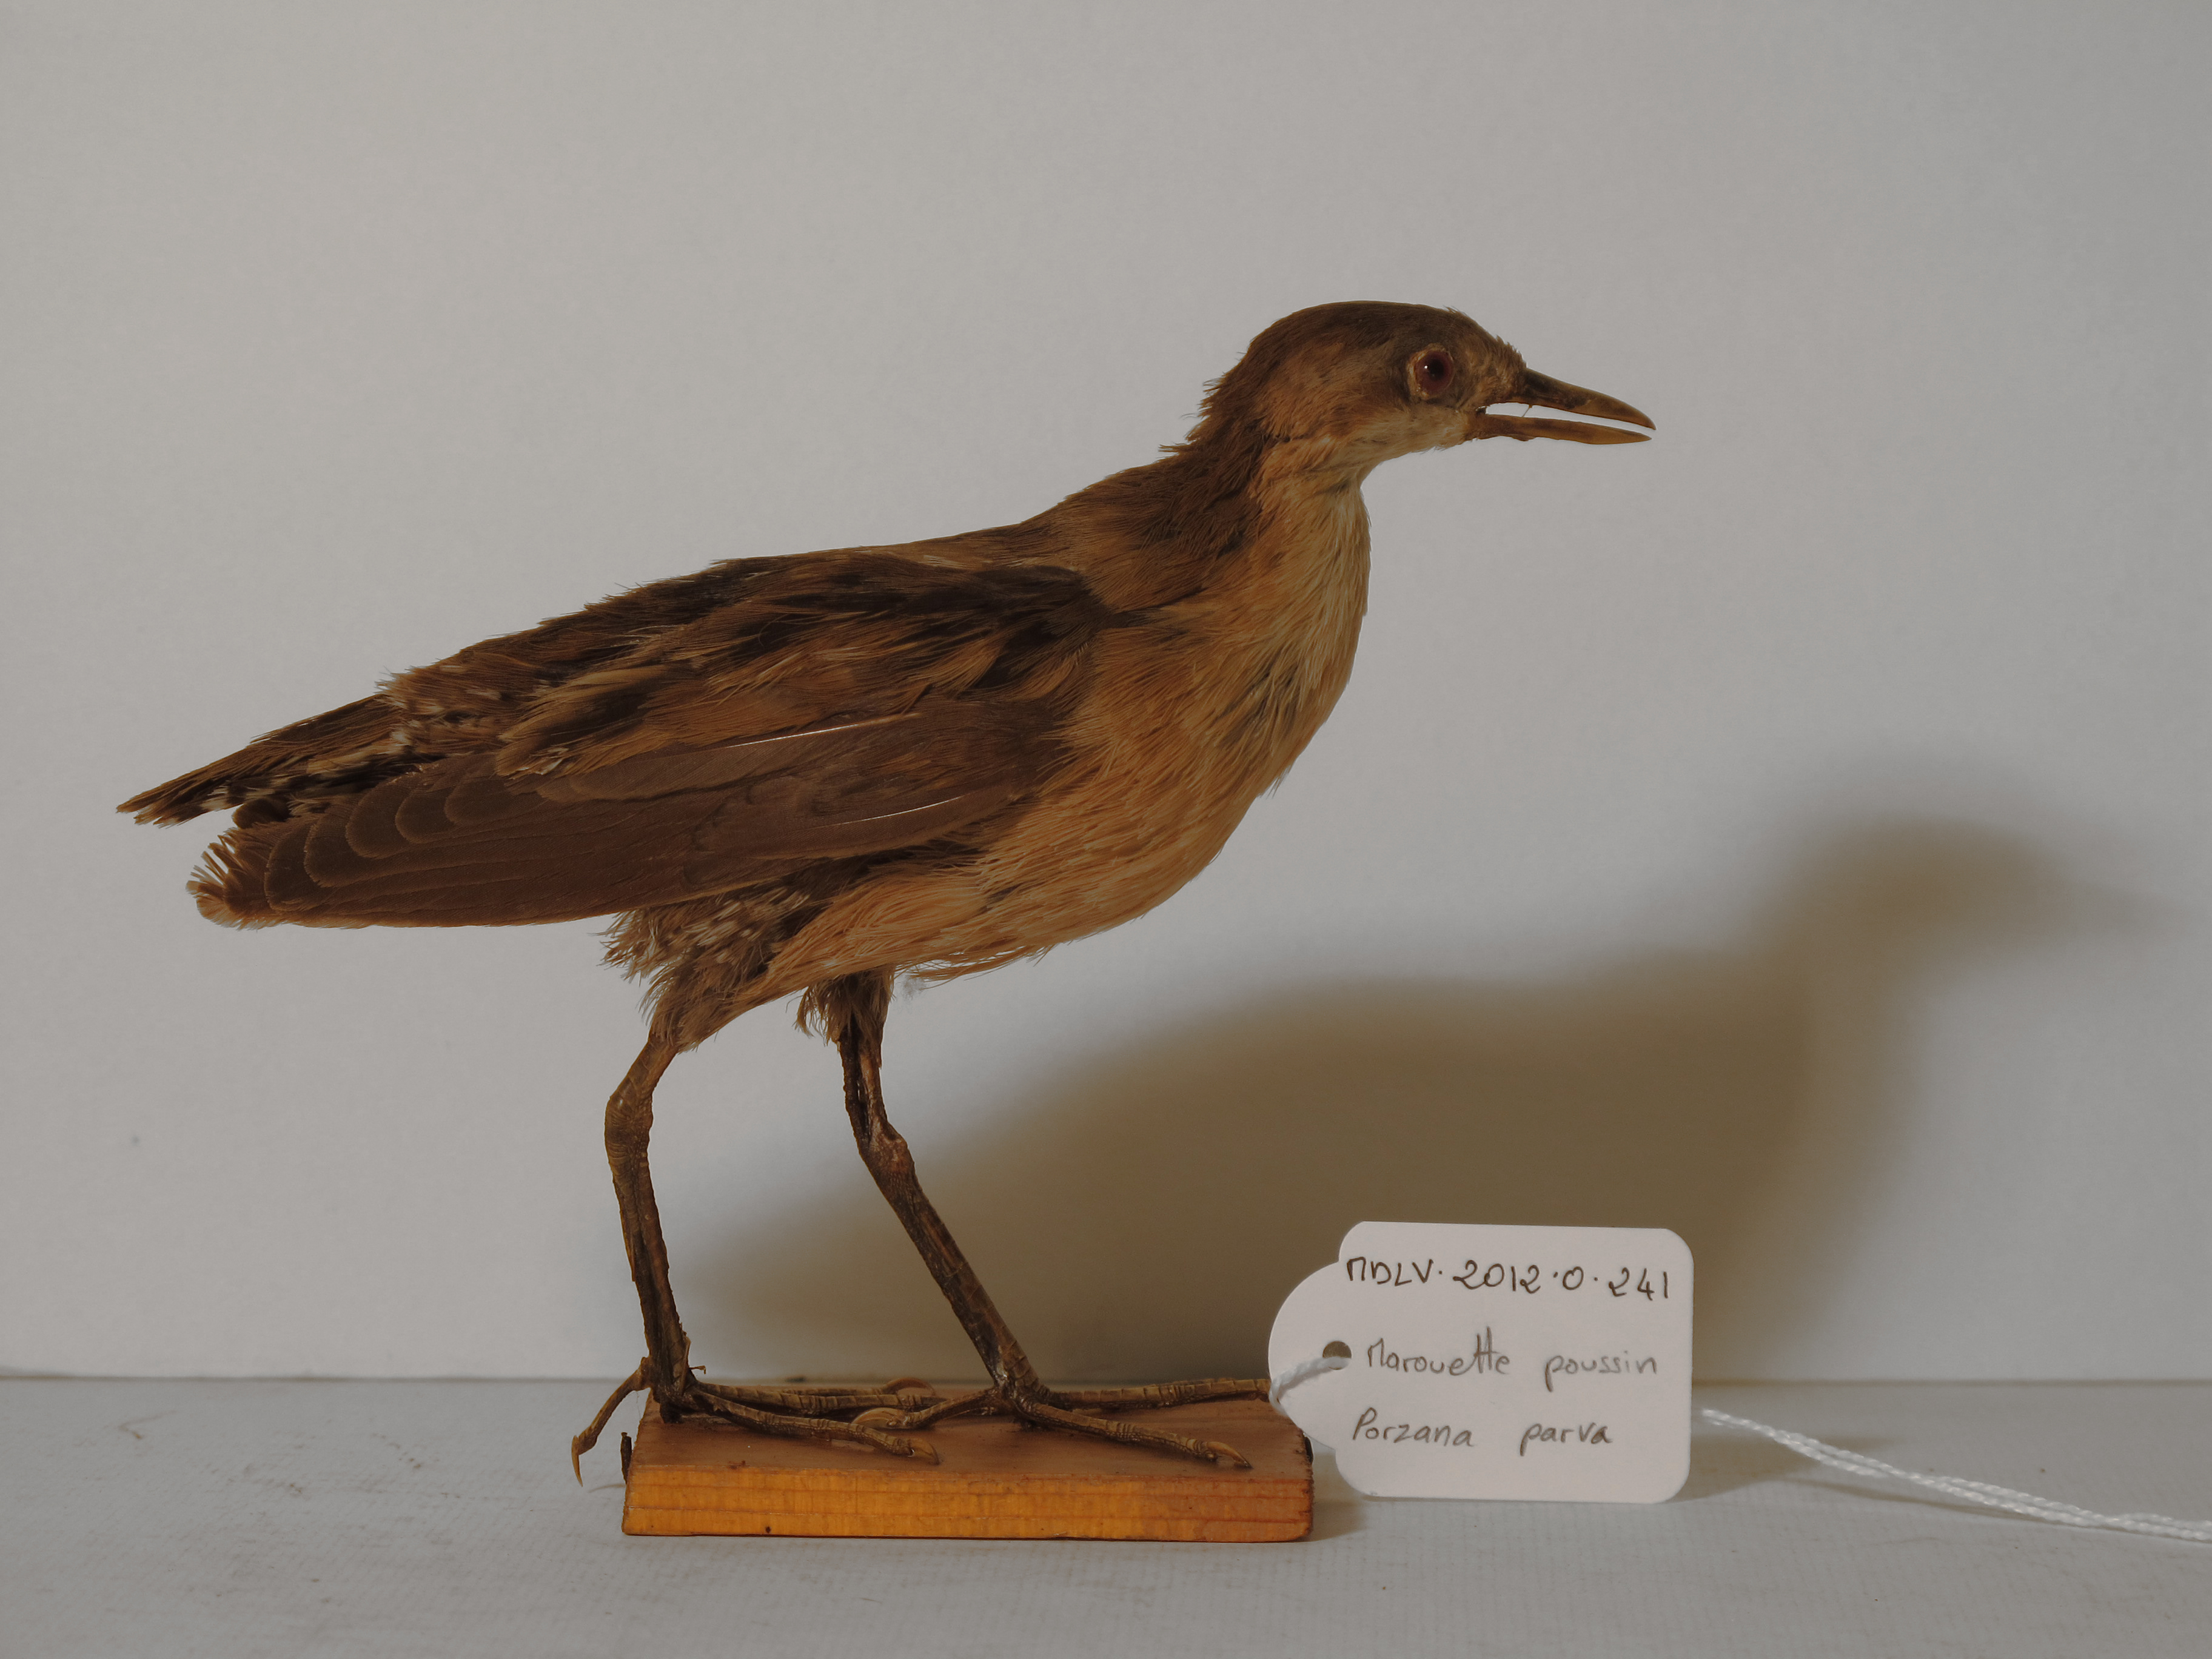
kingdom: Animalia
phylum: Chordata
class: Aves
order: Gruiformes
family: Rallidae
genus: Porzana
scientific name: Porzana parva
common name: Little Crake
